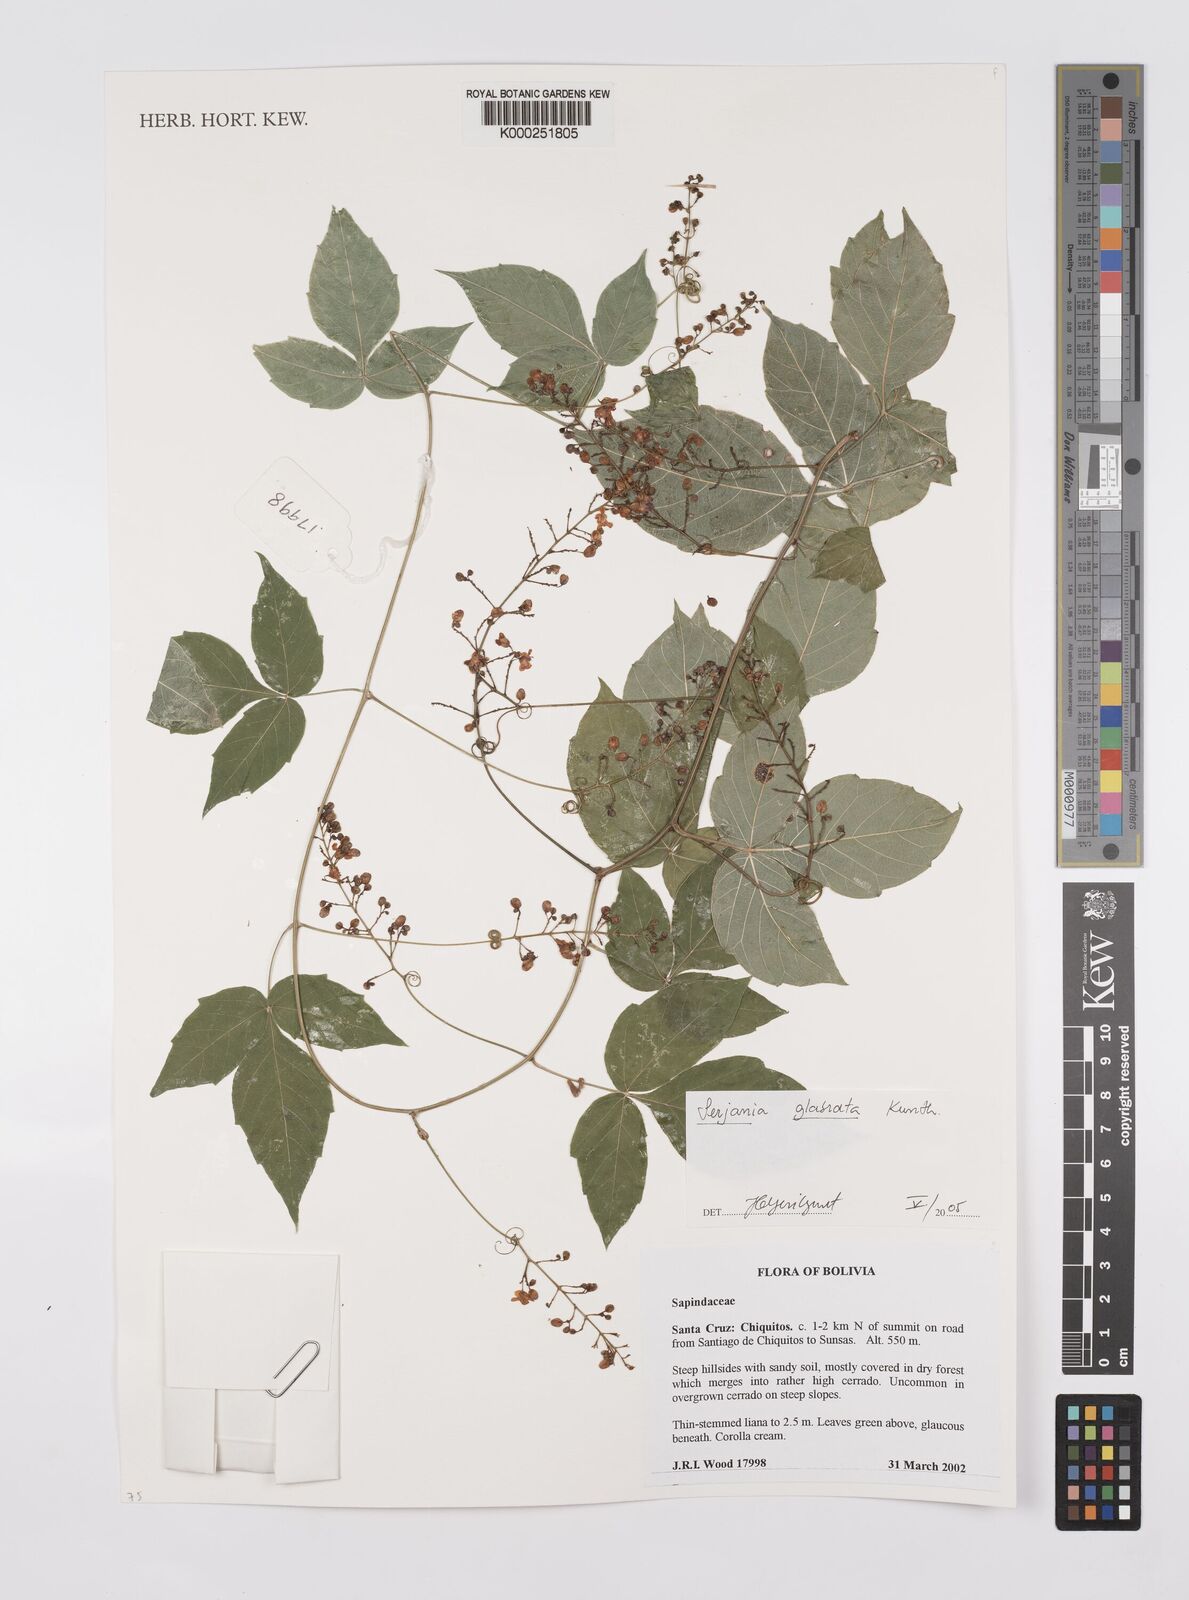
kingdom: Plantae
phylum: Tracheophyta
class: Magnoliopsida
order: Sapindales
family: Sapindaceae
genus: Serjania
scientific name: Serjania glabrata
